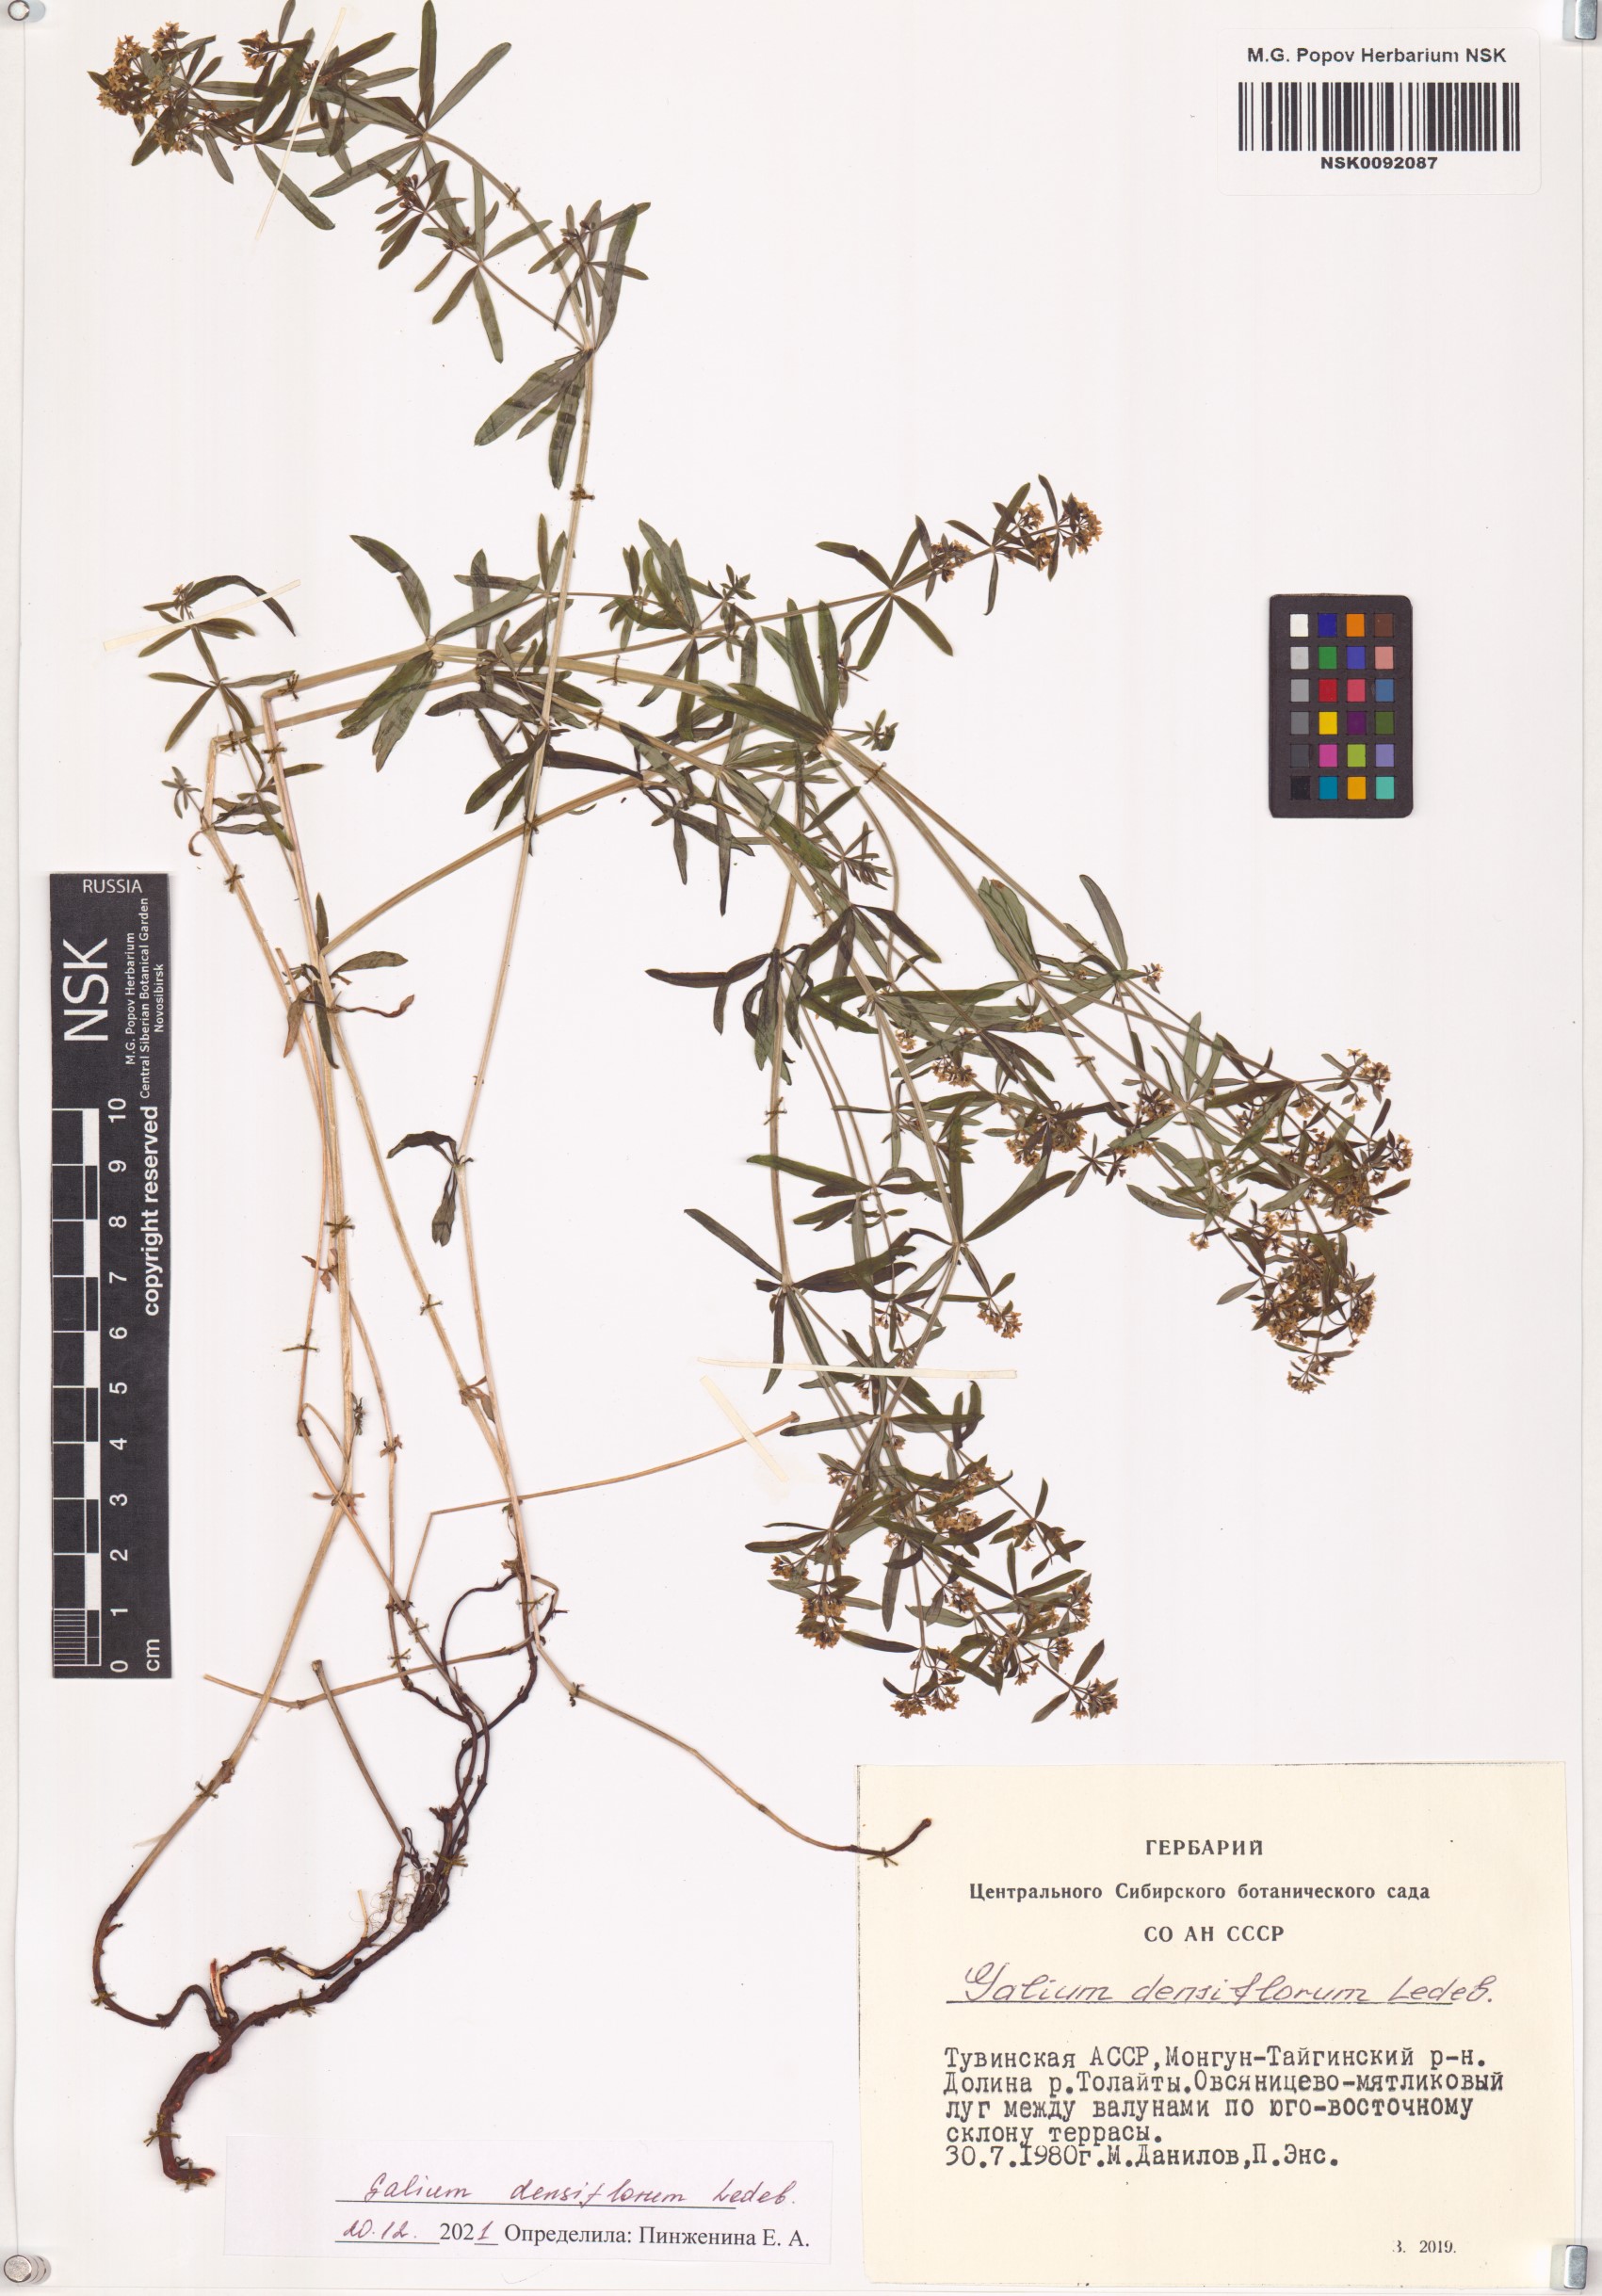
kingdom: Plantae
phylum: Tracheophyta
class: Magnoliopsida
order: Gentianales
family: Rubiaceae
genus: Galium
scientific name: Galium densiflorum
